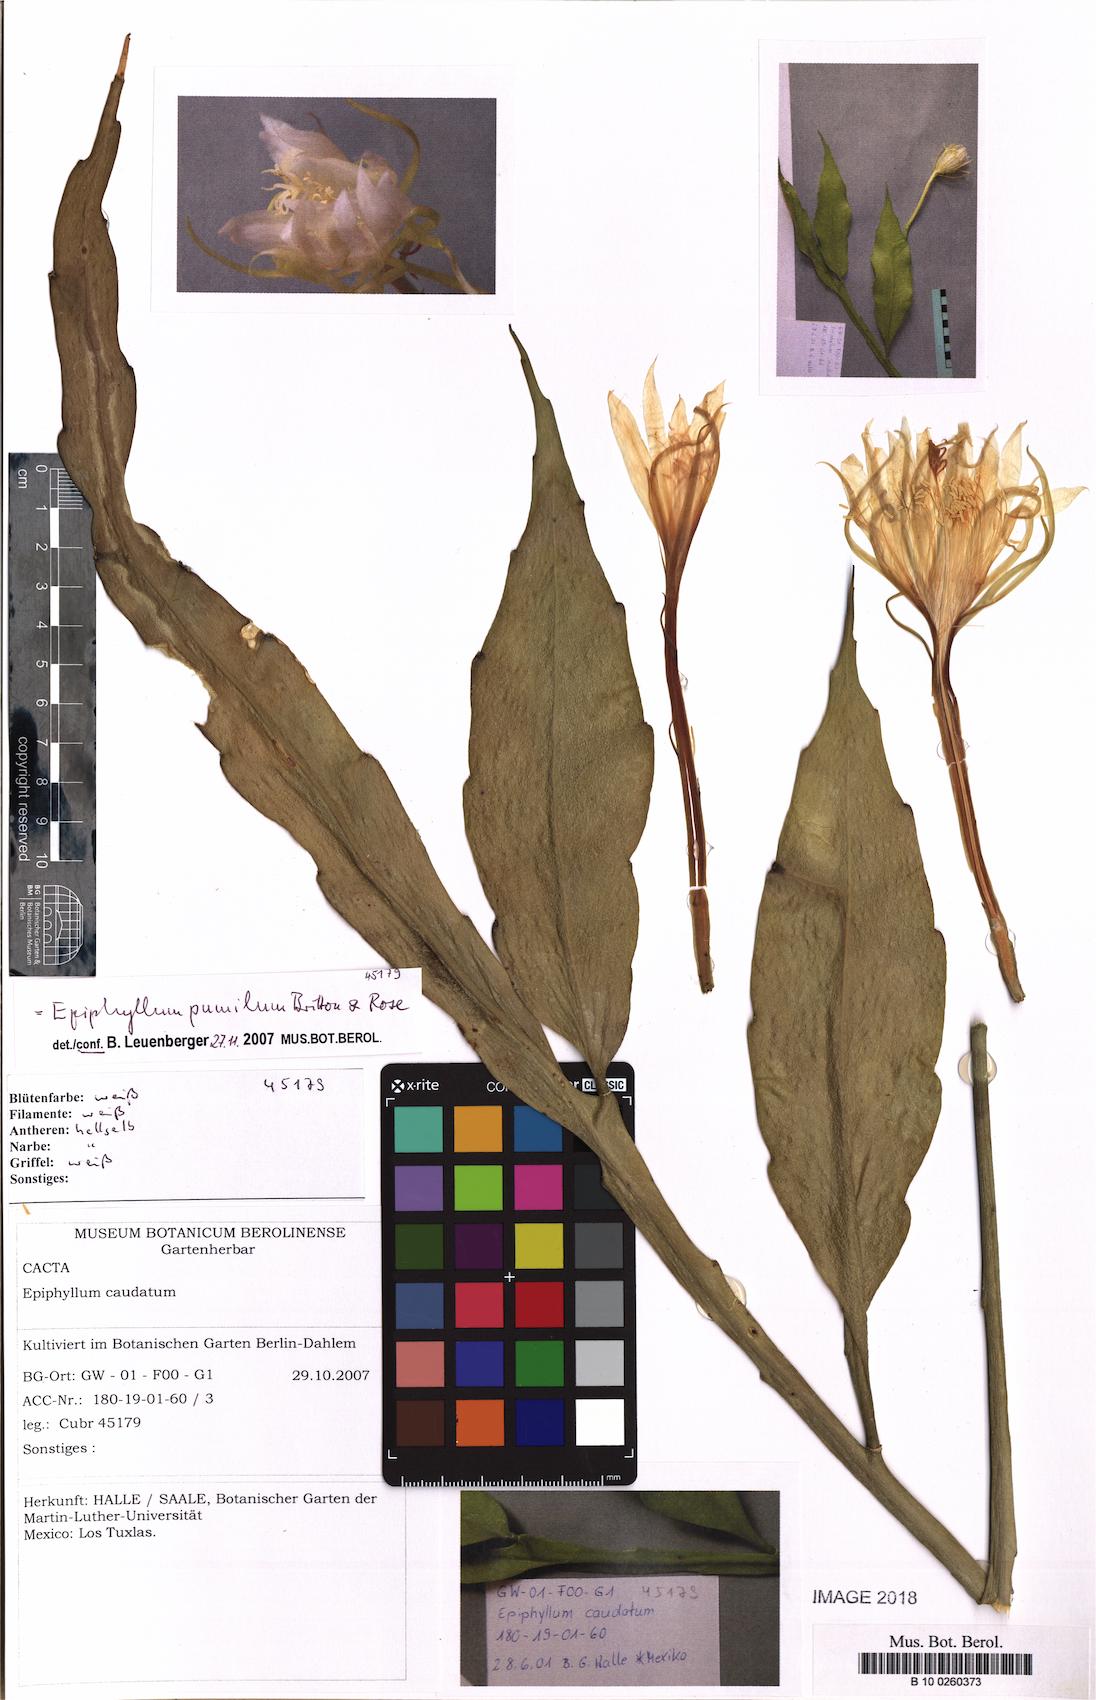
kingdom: Plantae
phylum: Tracheophyta
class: Magnoliopsida
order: Caryophyllales
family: Cactaceae
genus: Epiphyllum
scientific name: Epiphyllum pumilum
